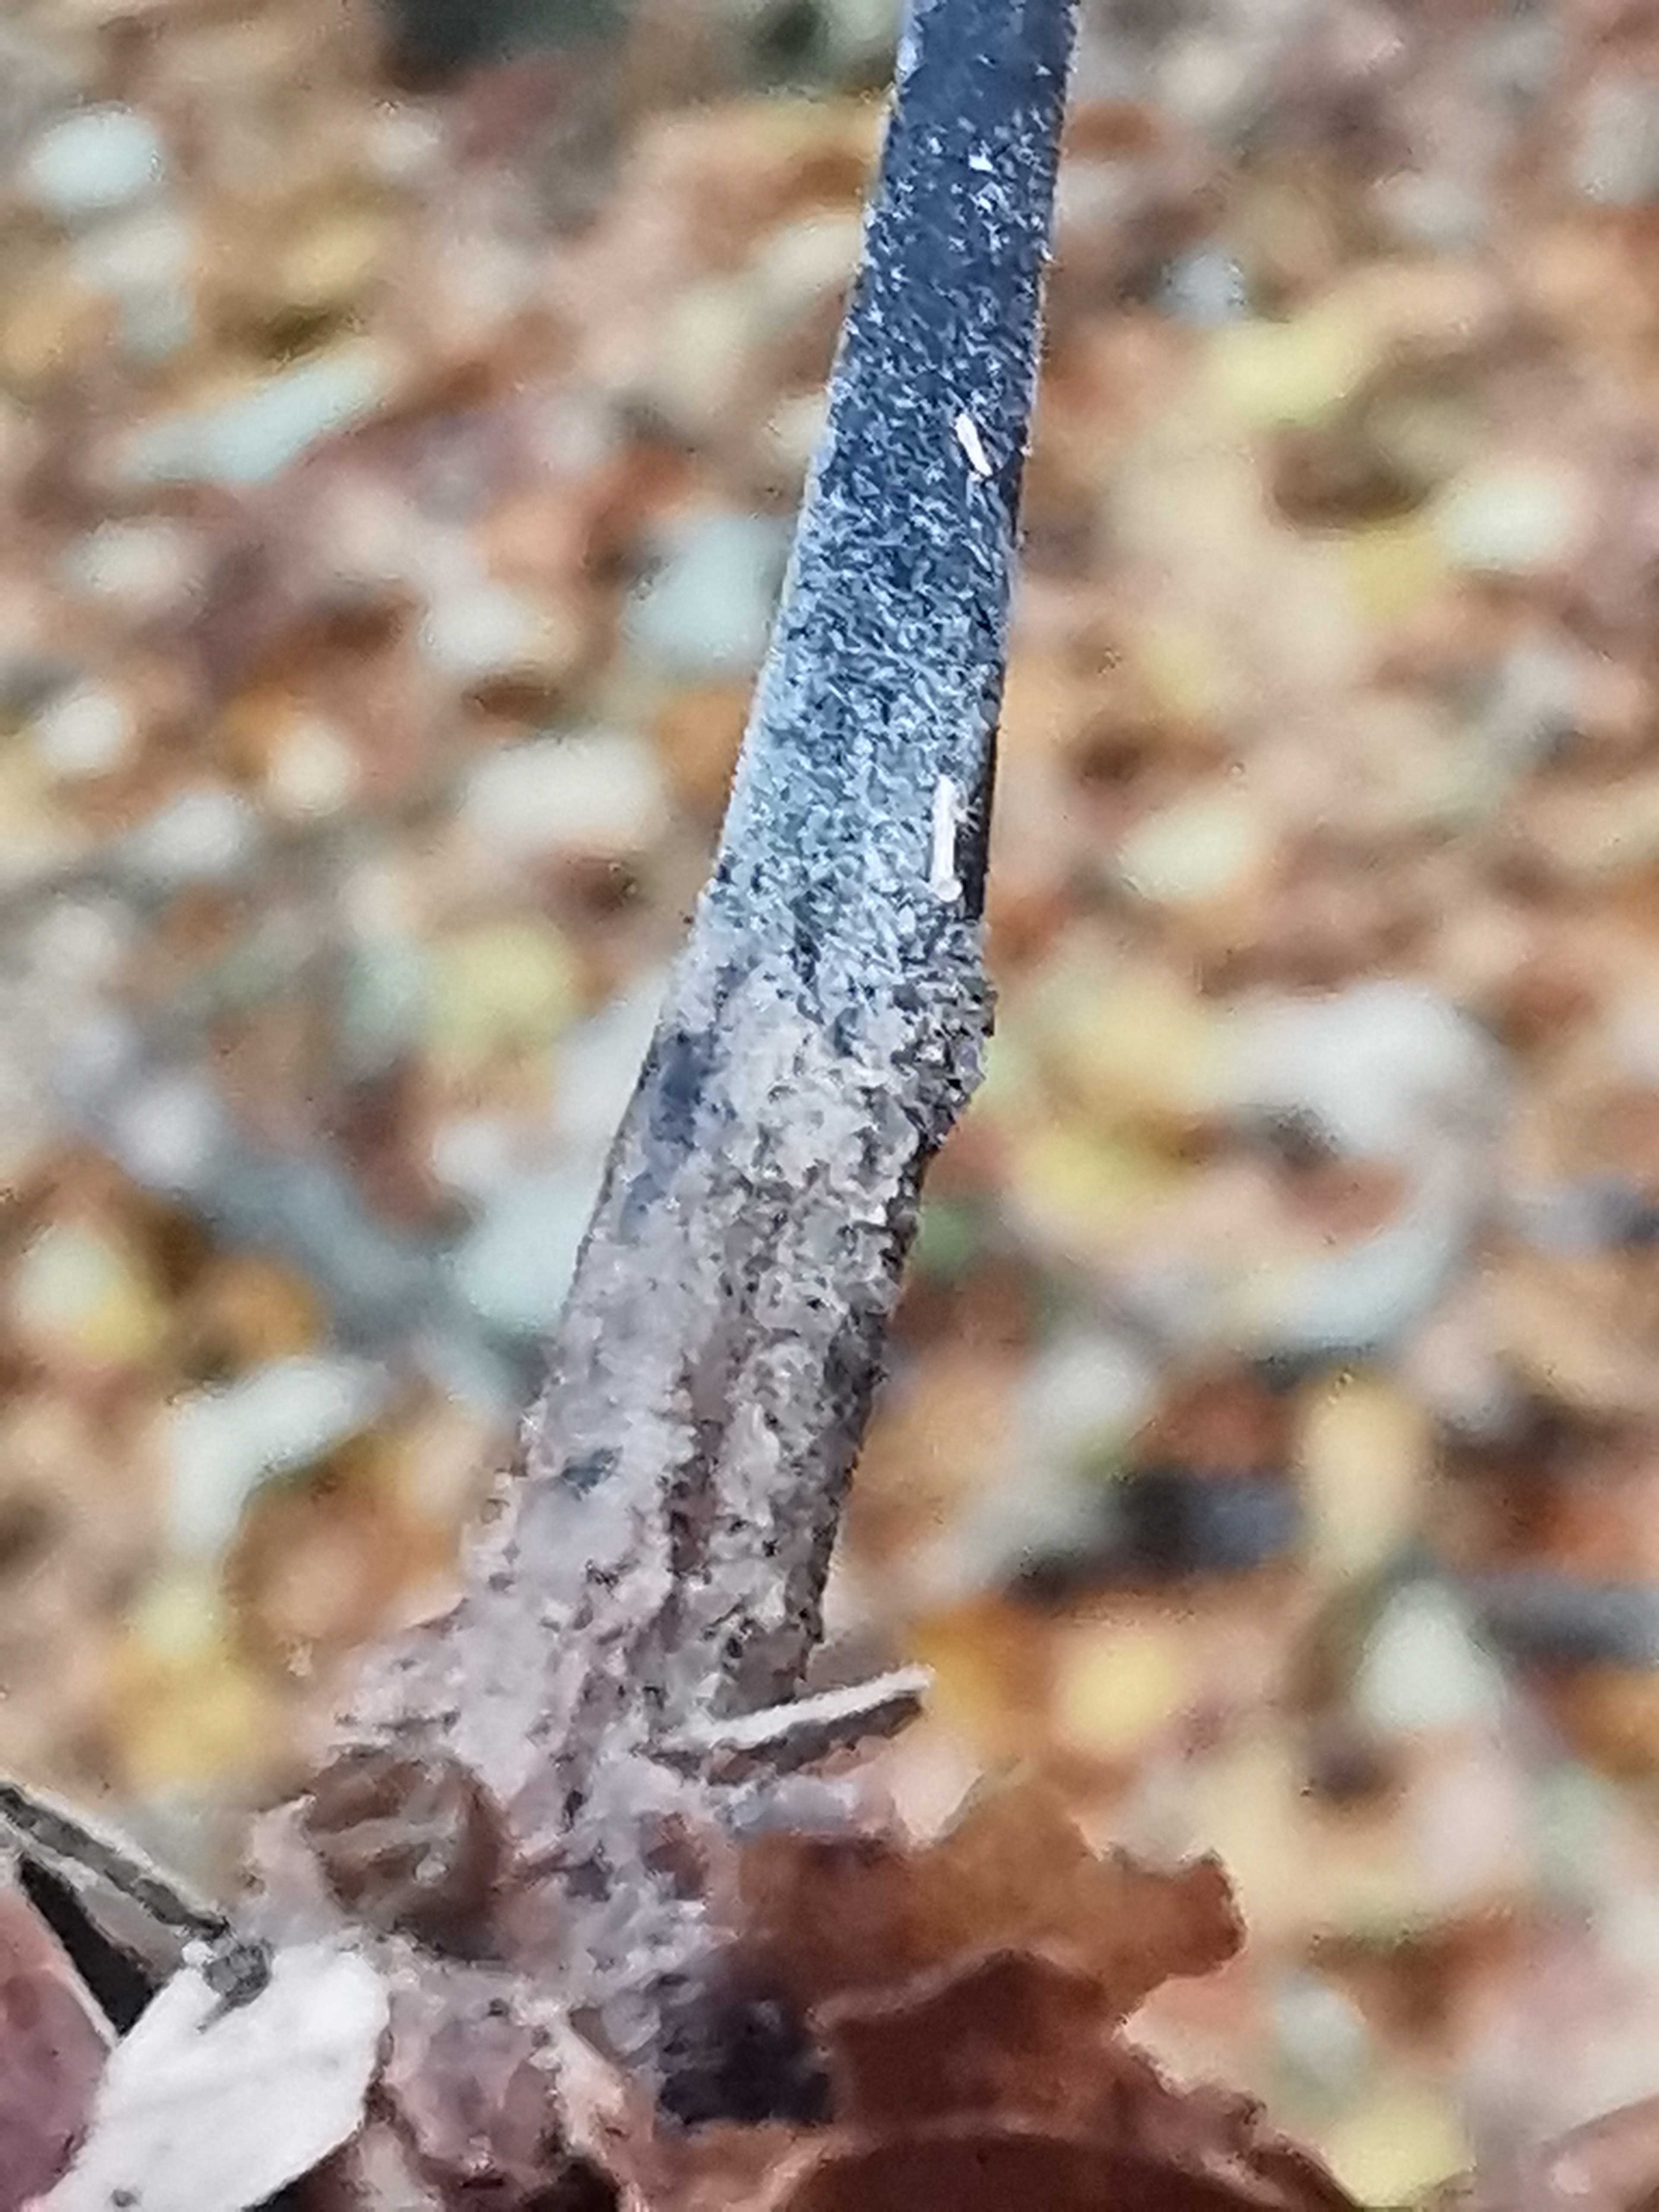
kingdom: Fungi
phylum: Basidiomycota
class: Agaricomycetes
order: Agaricales
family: Omphalotaceae
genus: Mycetinis
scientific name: Mycetinis alliaceus
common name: stor løghat
